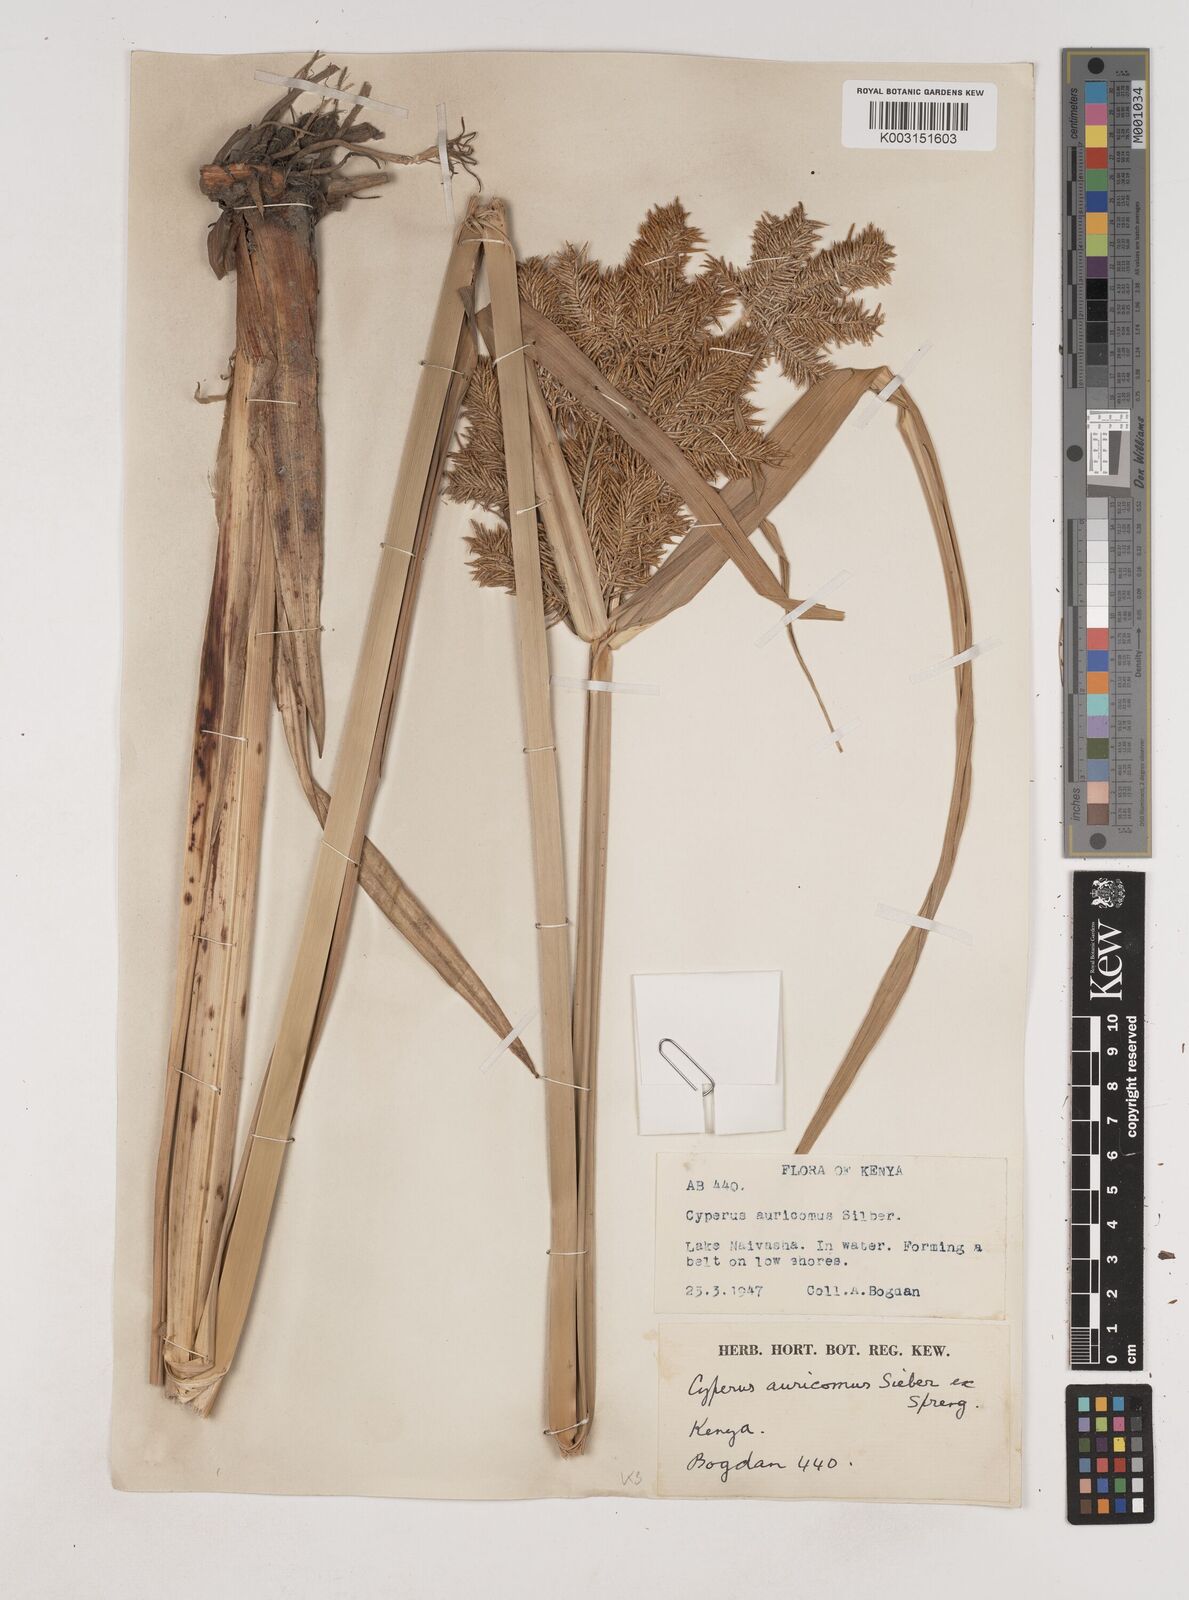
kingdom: Plantae
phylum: Tracheophyta
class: Liliopsida
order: Poales
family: Cyperaceae
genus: Cyperus
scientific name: Cyperus digitatus
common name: Finger flatsedge
